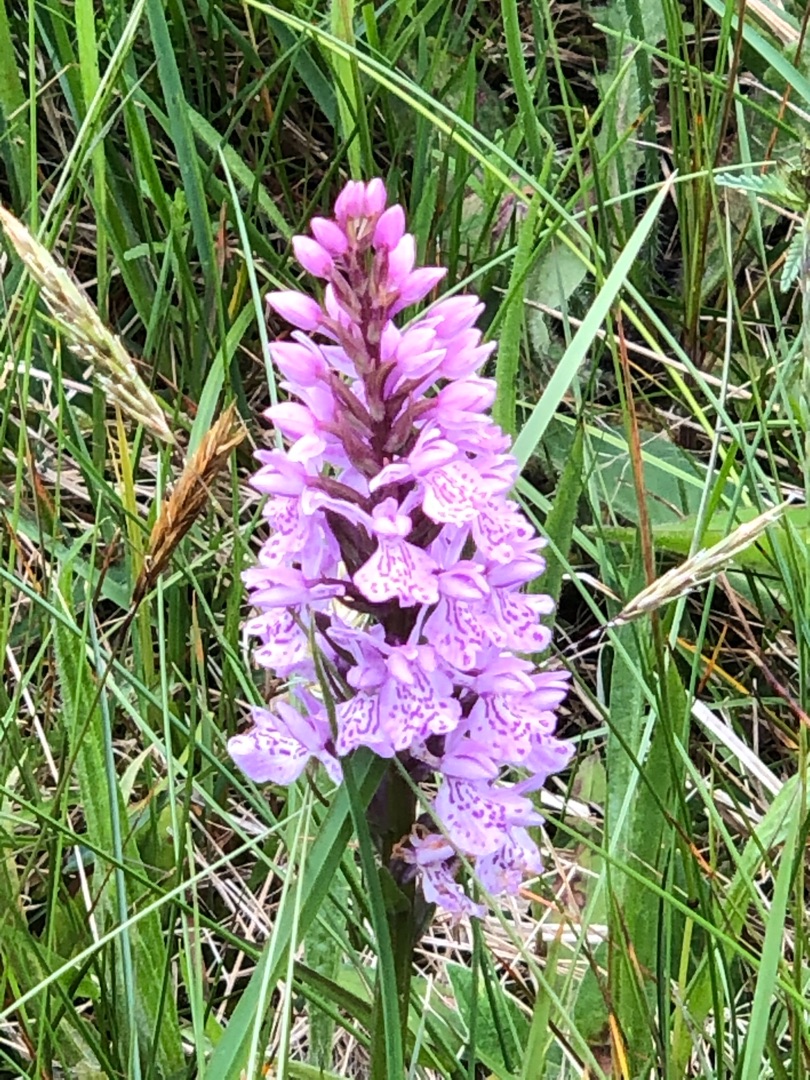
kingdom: Plantae
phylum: Tracheophyta
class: Liliopsida
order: Asparagales
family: Orchidaceae
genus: Dactylorhiza
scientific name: Dactylorhiza maculata
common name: Plettet gøgeurt
